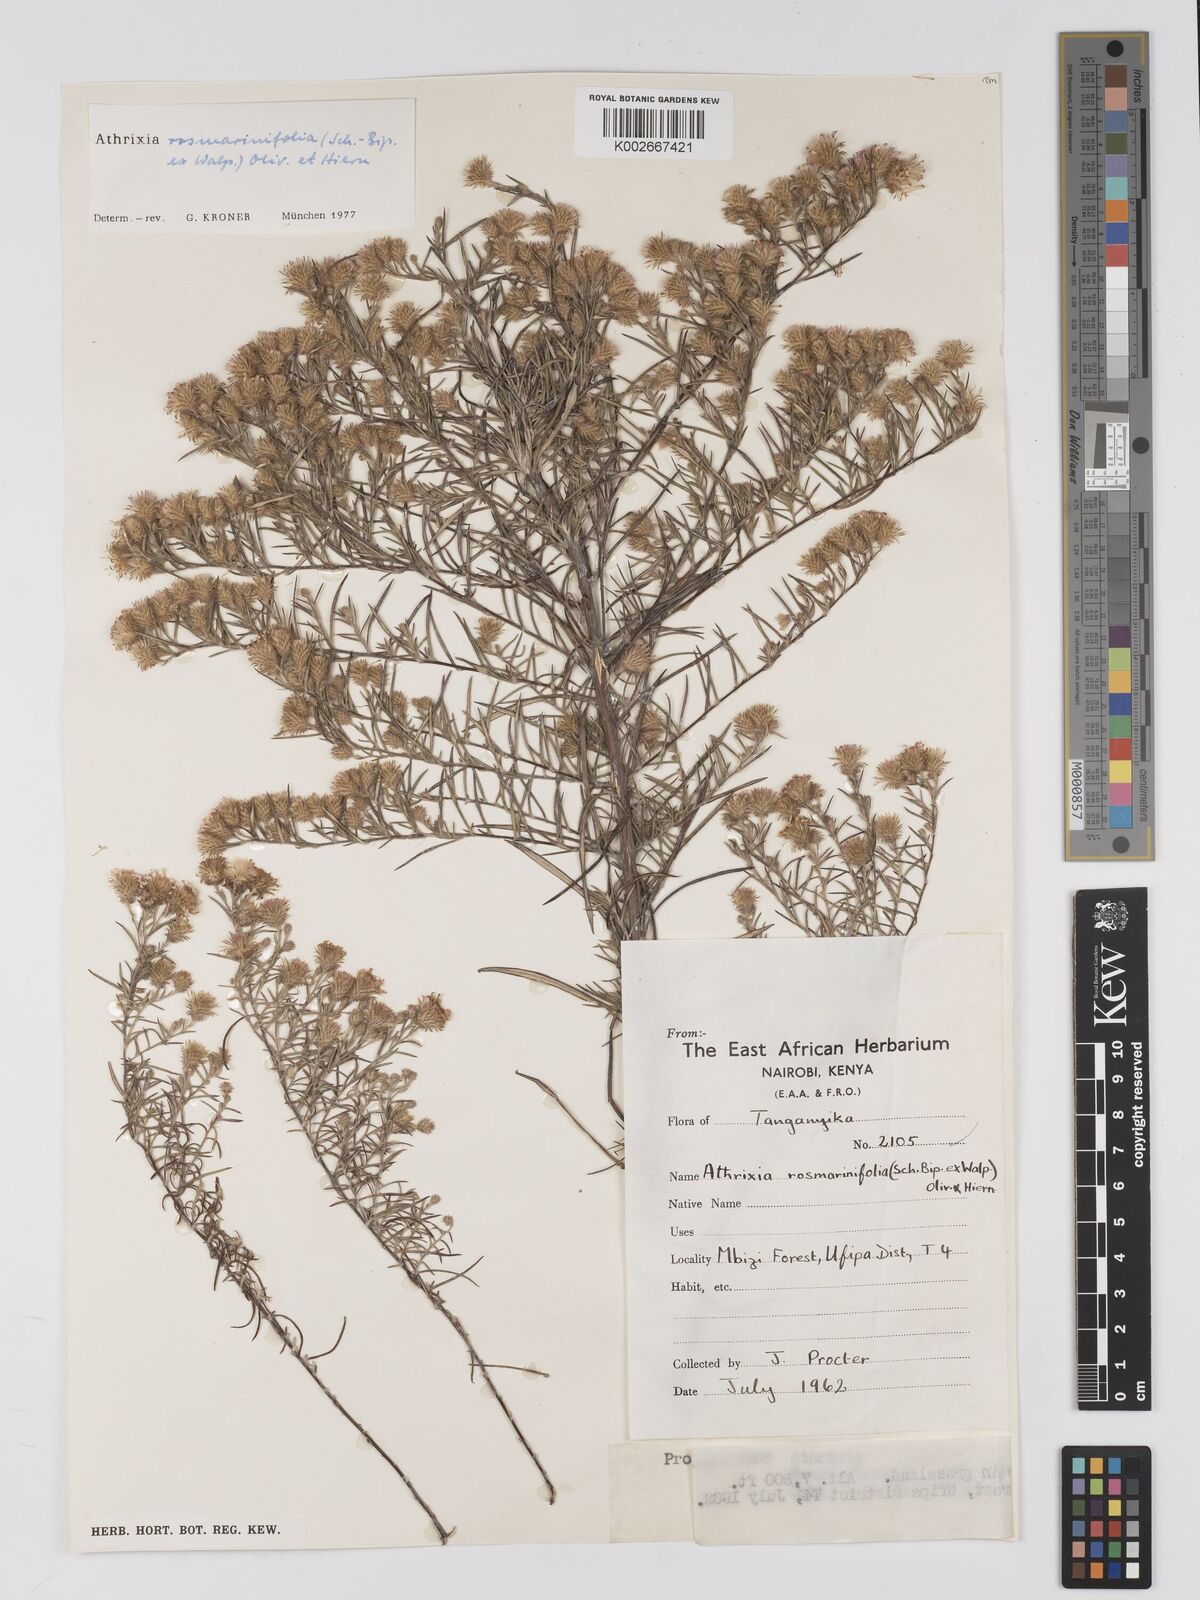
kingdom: Plantae
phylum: Tracheophyta
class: Magnoliopsida
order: Asterales
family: Asteraceae
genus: Athrixia
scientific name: Athrixia rosmarinifolia
